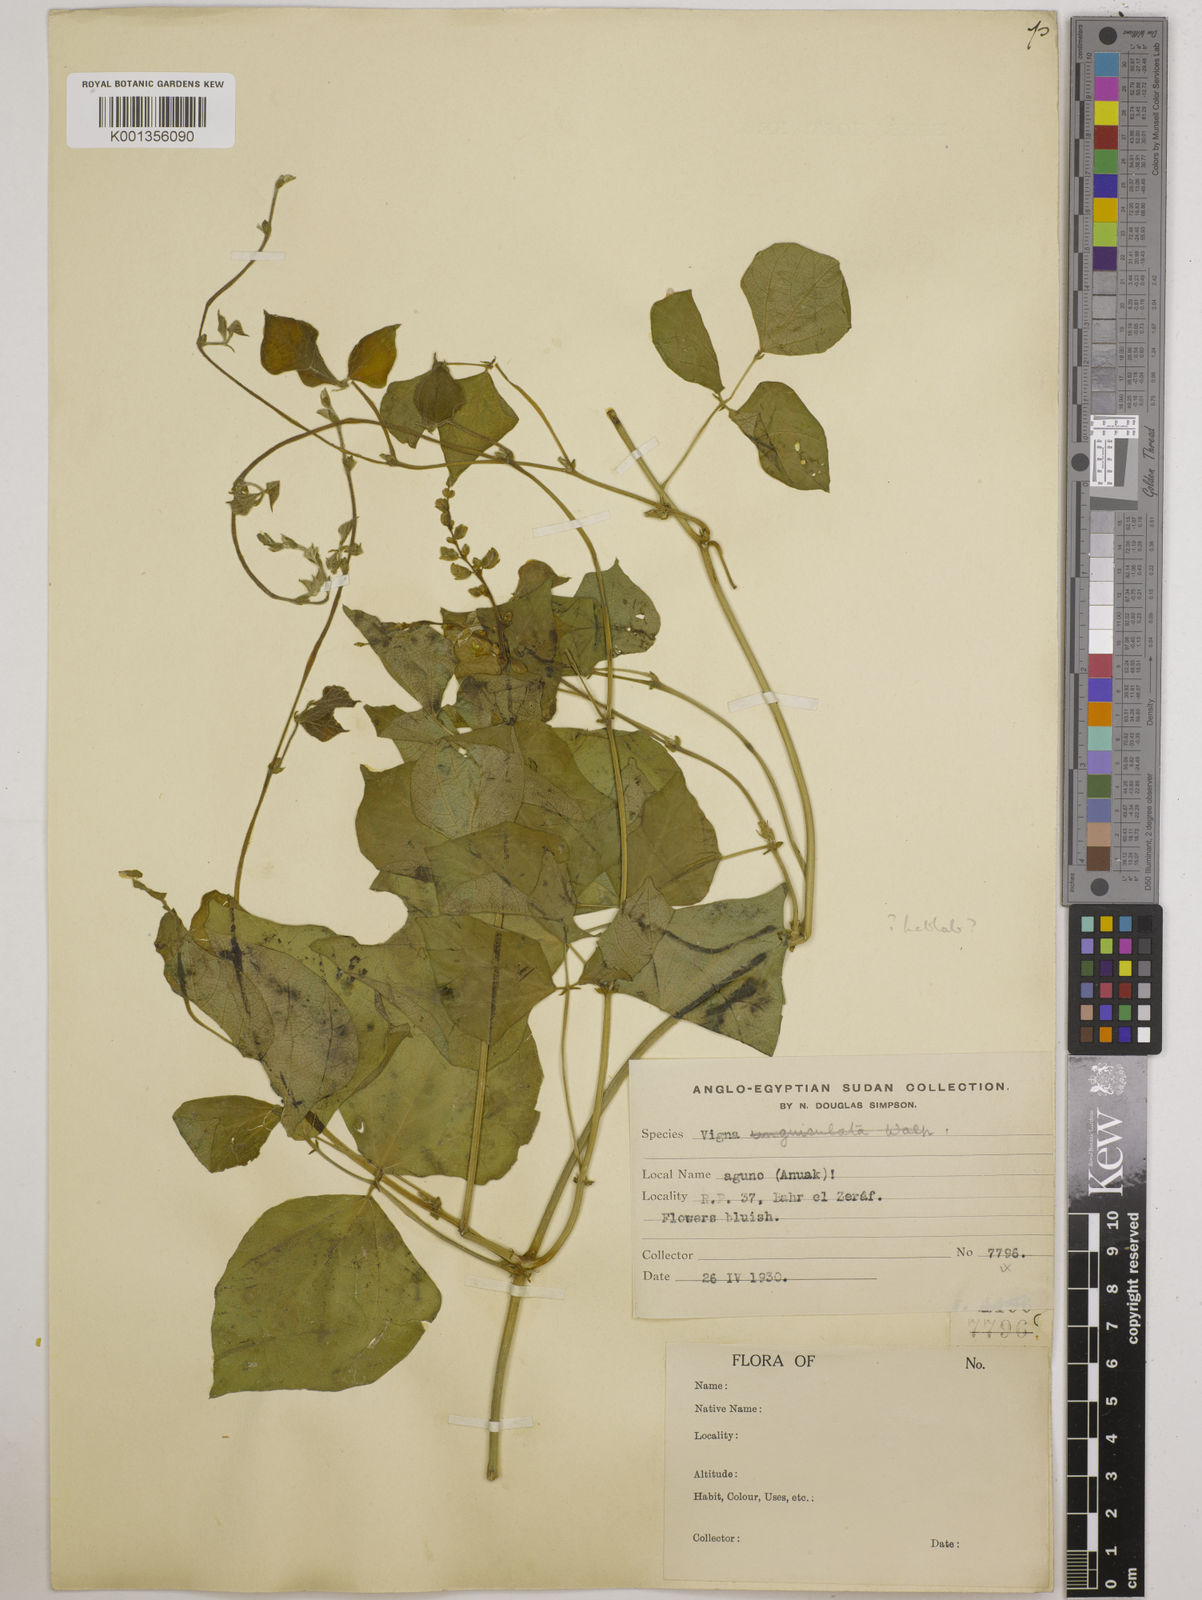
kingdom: Plantae
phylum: Tracheophyta
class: Magnoliopsida
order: Fabales
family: Fabaceae
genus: Lablab
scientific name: Lablab purpureus
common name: Lablab-bean
